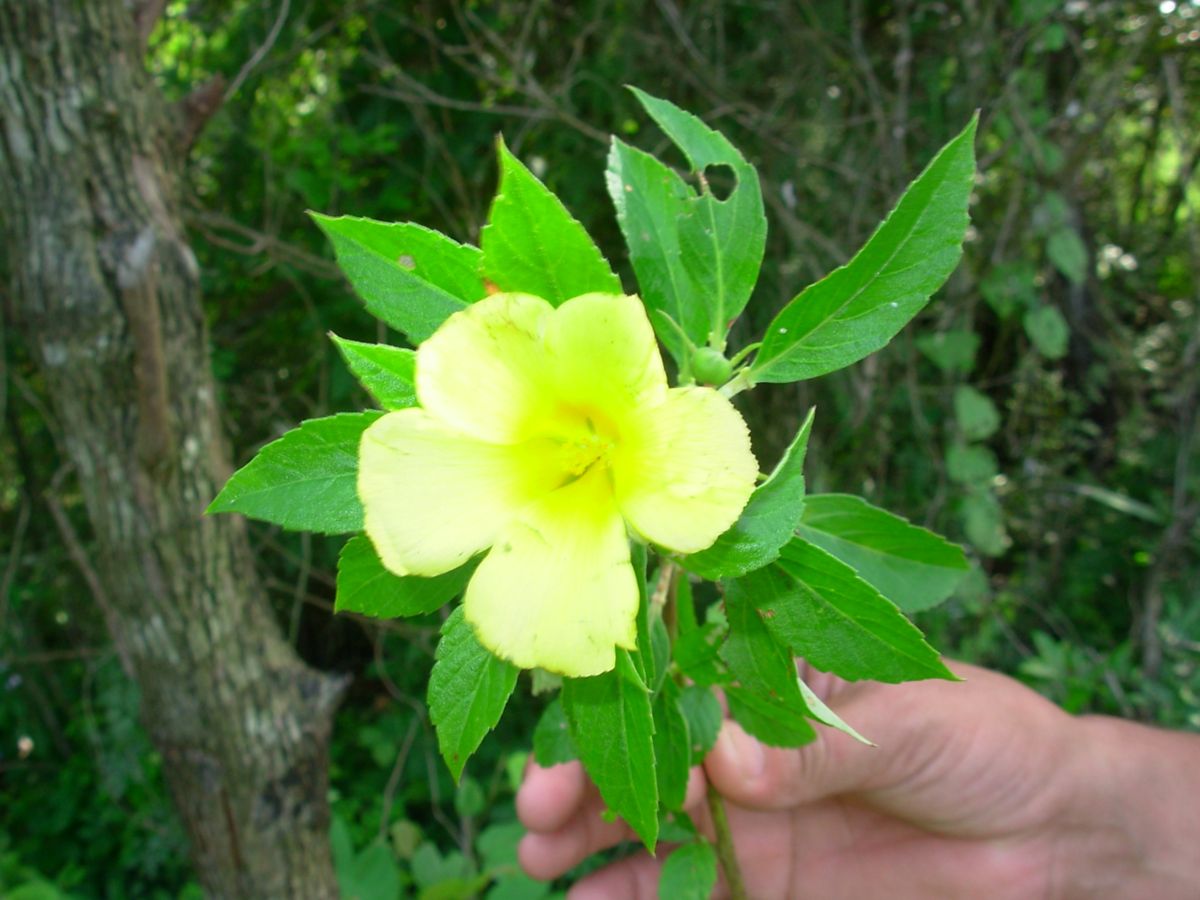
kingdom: Plantae
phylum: Tracheophyta
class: Magnoliopsida
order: Malpighiales
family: Turneraceae
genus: Turnera
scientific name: Turnera ulmifolia
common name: Ramgoat dashalong
